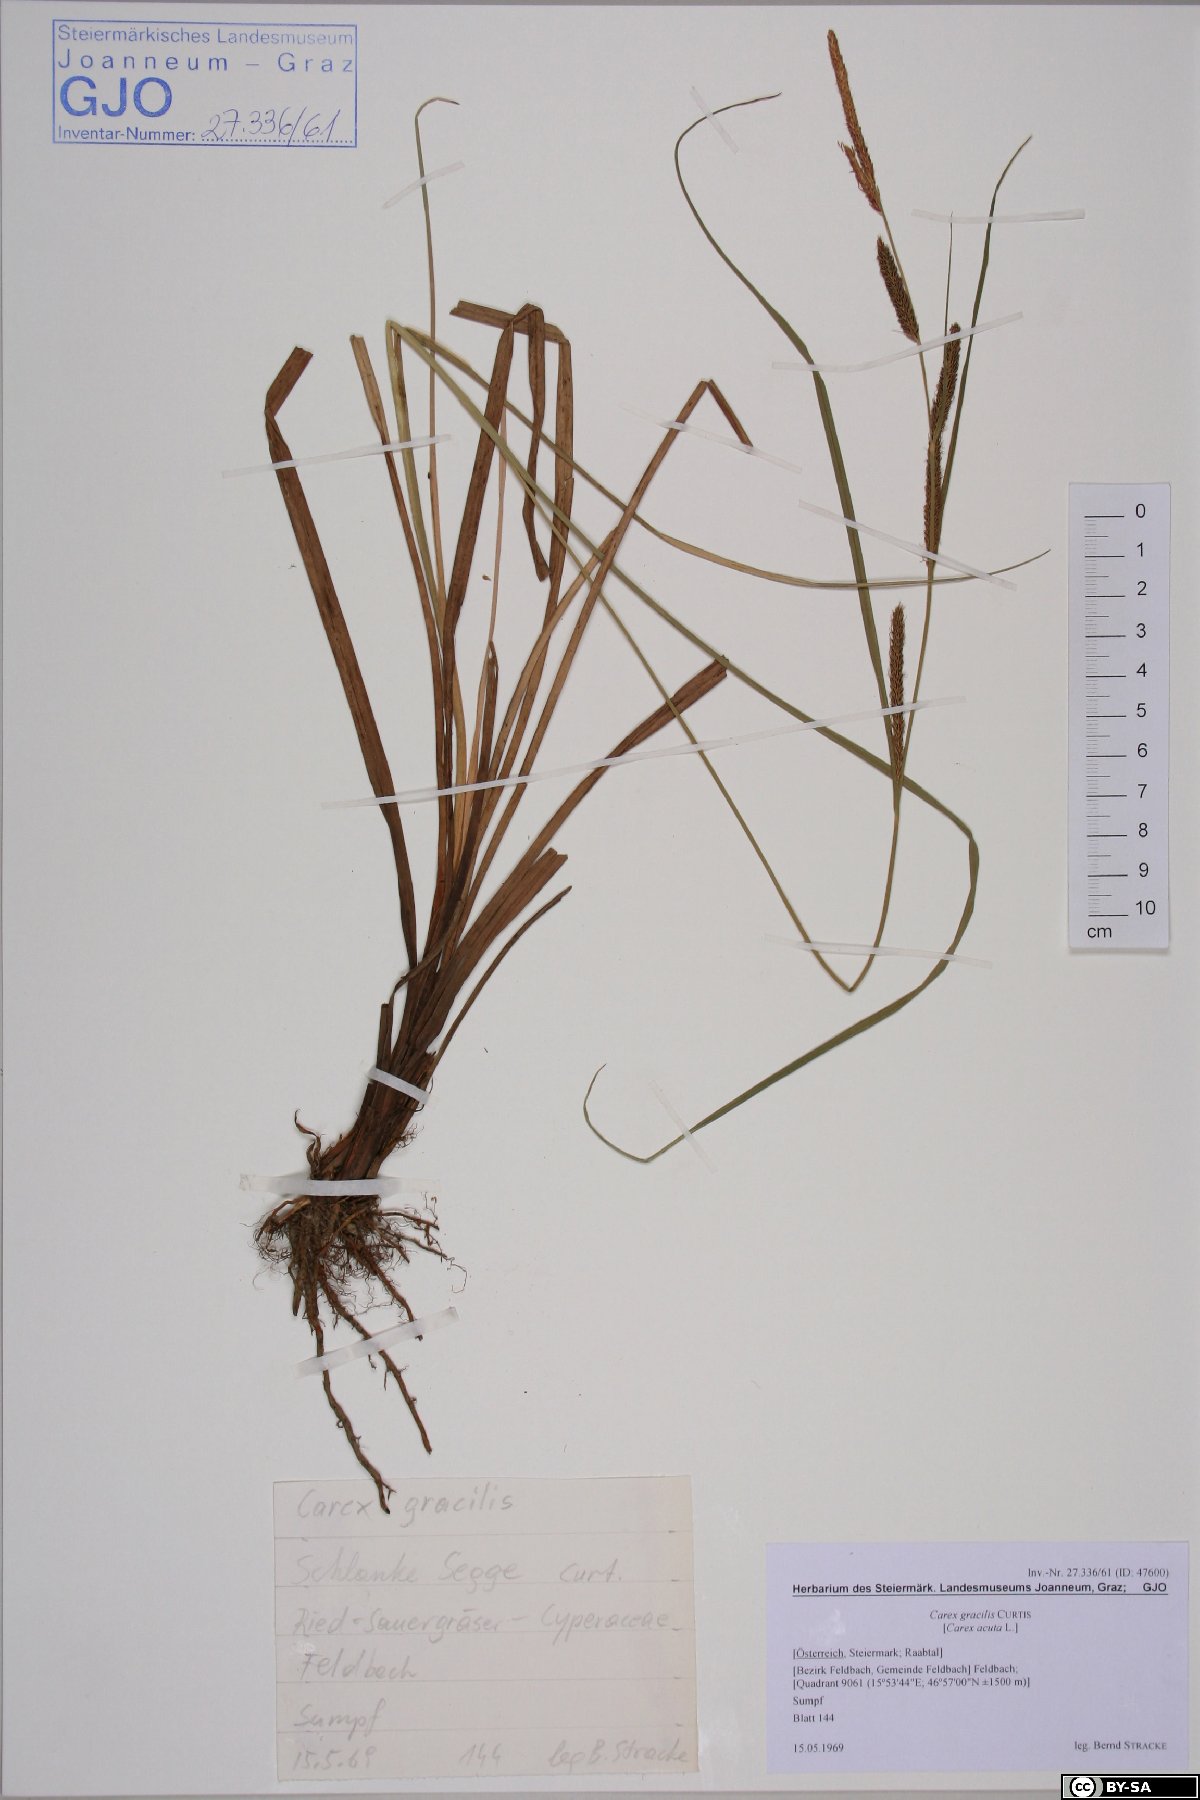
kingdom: Plantae
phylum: Tracheophyta
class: Liliopsida
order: Poales
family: Cyperaceae
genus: Carex
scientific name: Carex acuta
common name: Slender tufted-sedge
